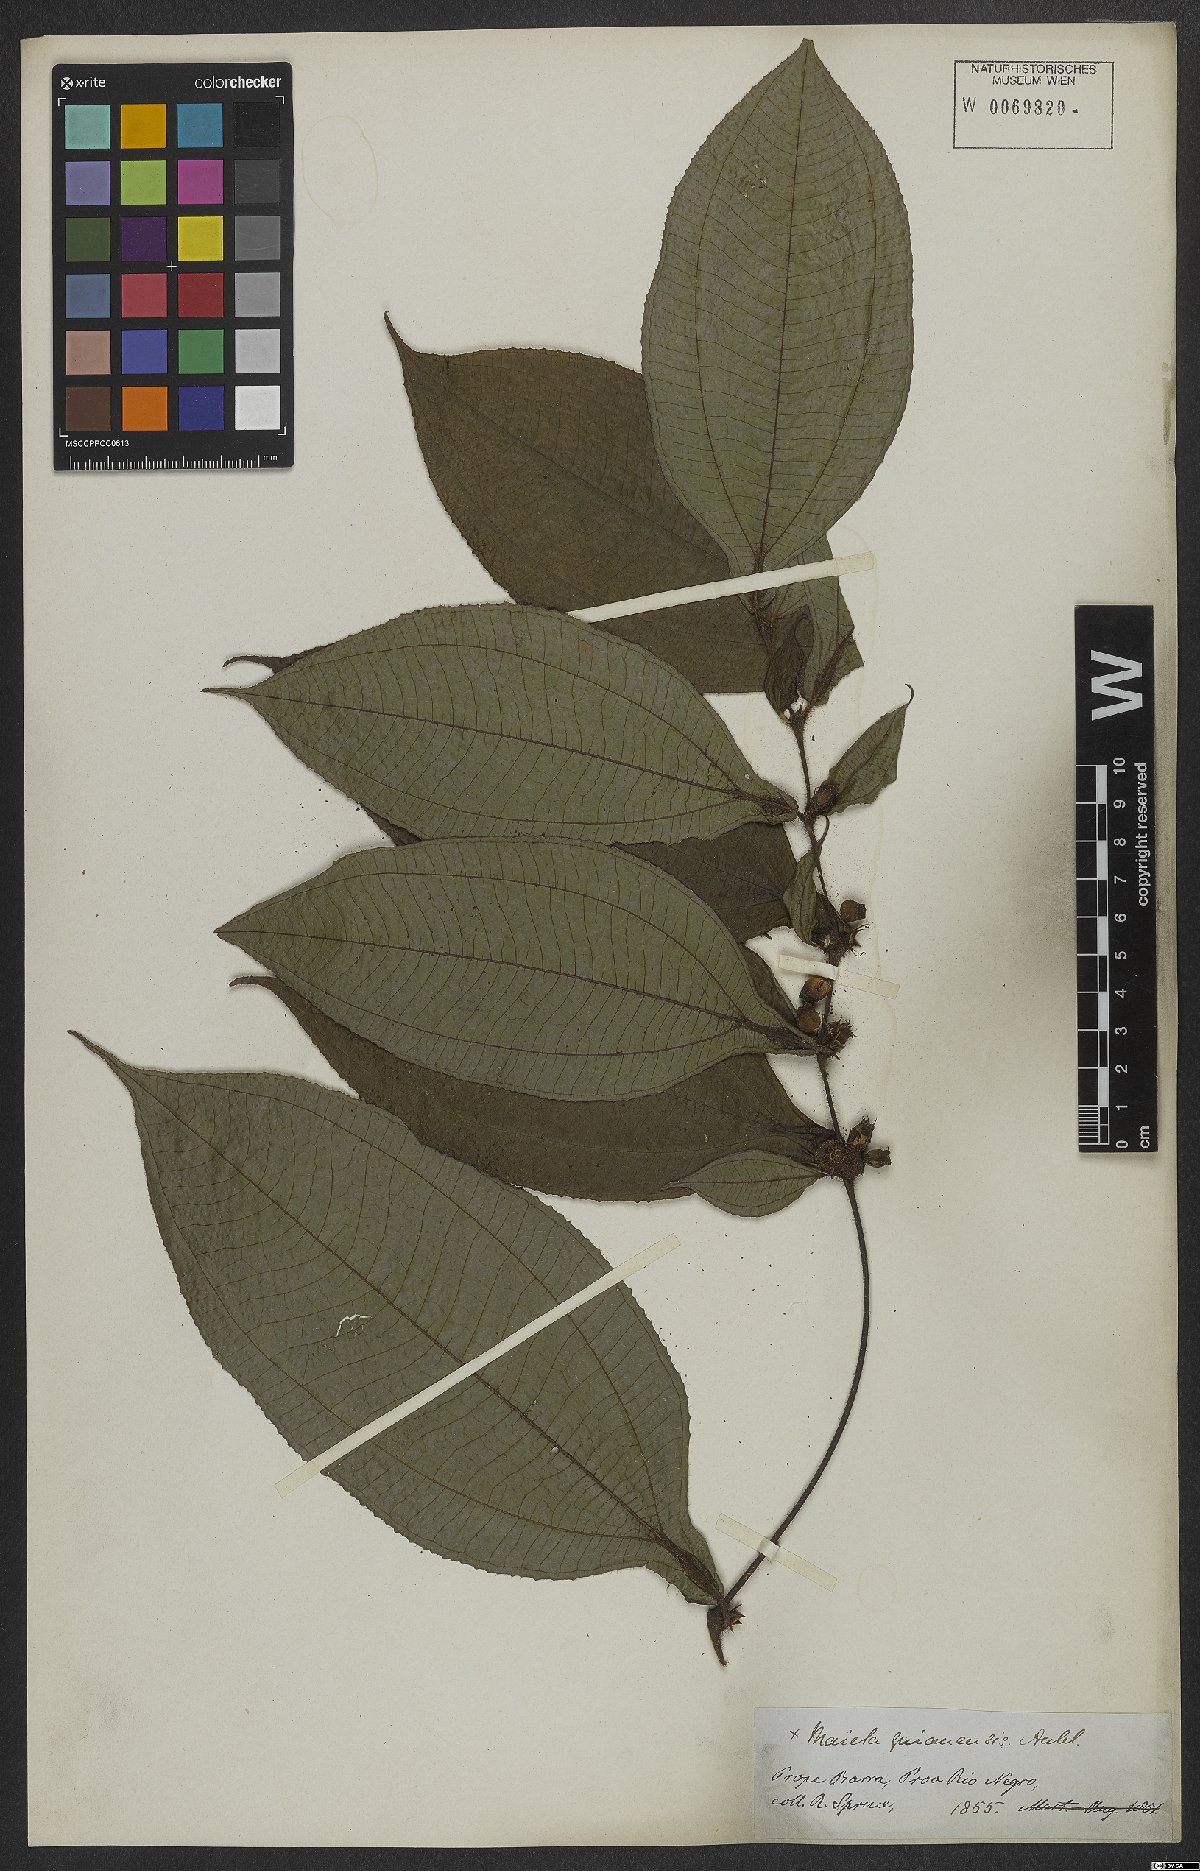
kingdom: Plantae
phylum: Tracheophyta
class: Magnoliopsida
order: Myrtales
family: Melastomataceae
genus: Miconia
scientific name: Miconia mayeta
